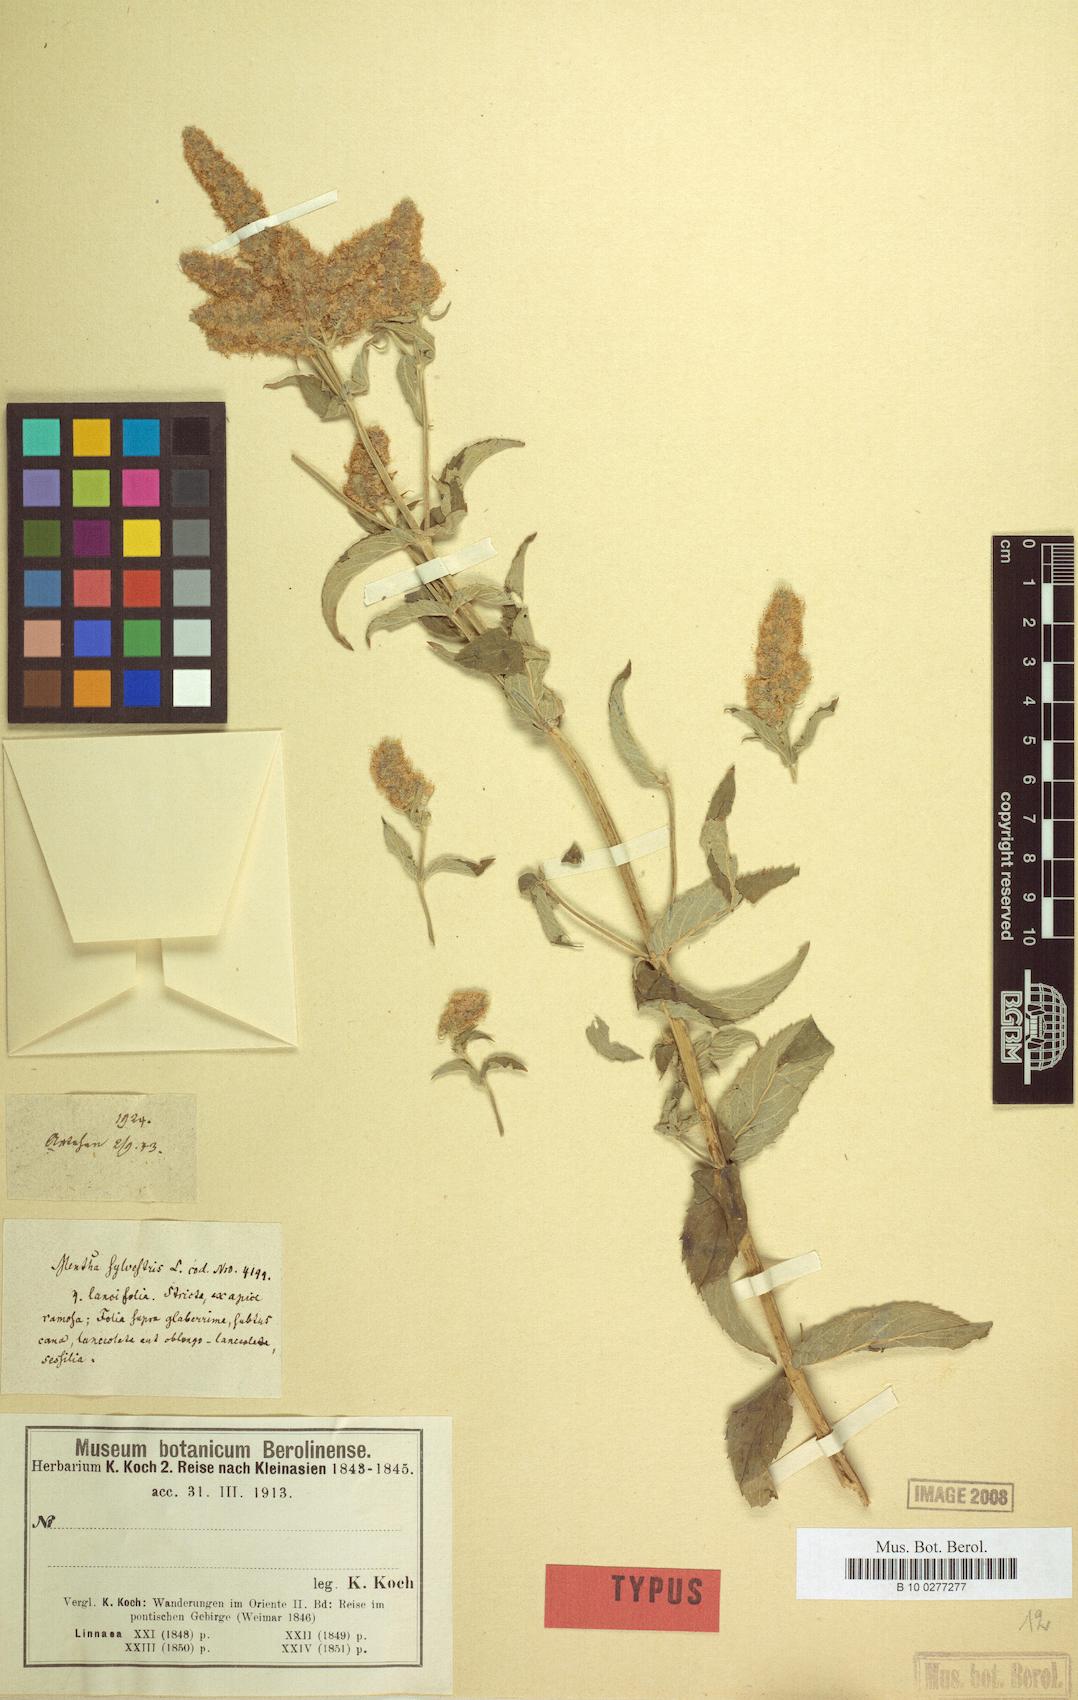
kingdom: Plantae
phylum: Tracheophyta
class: Magnoliopsida
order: Lamiales
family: Lamiaceae
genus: Mentha
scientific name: Mentha longifolia
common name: Horse mint
